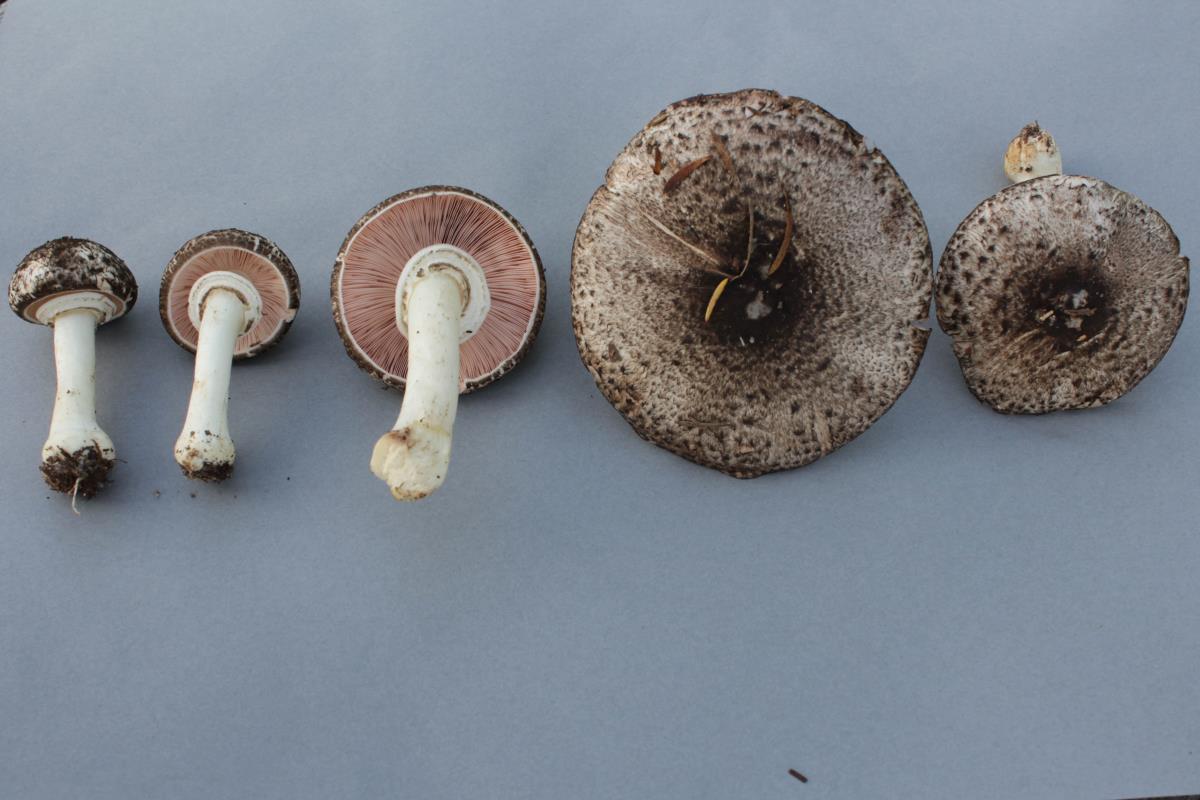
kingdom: Fungi
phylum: Basidiomycota
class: Agaricomycetes
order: Agaricales
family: Agaricaceae
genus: Agaricus
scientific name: Agaricus viridopurpurascens
